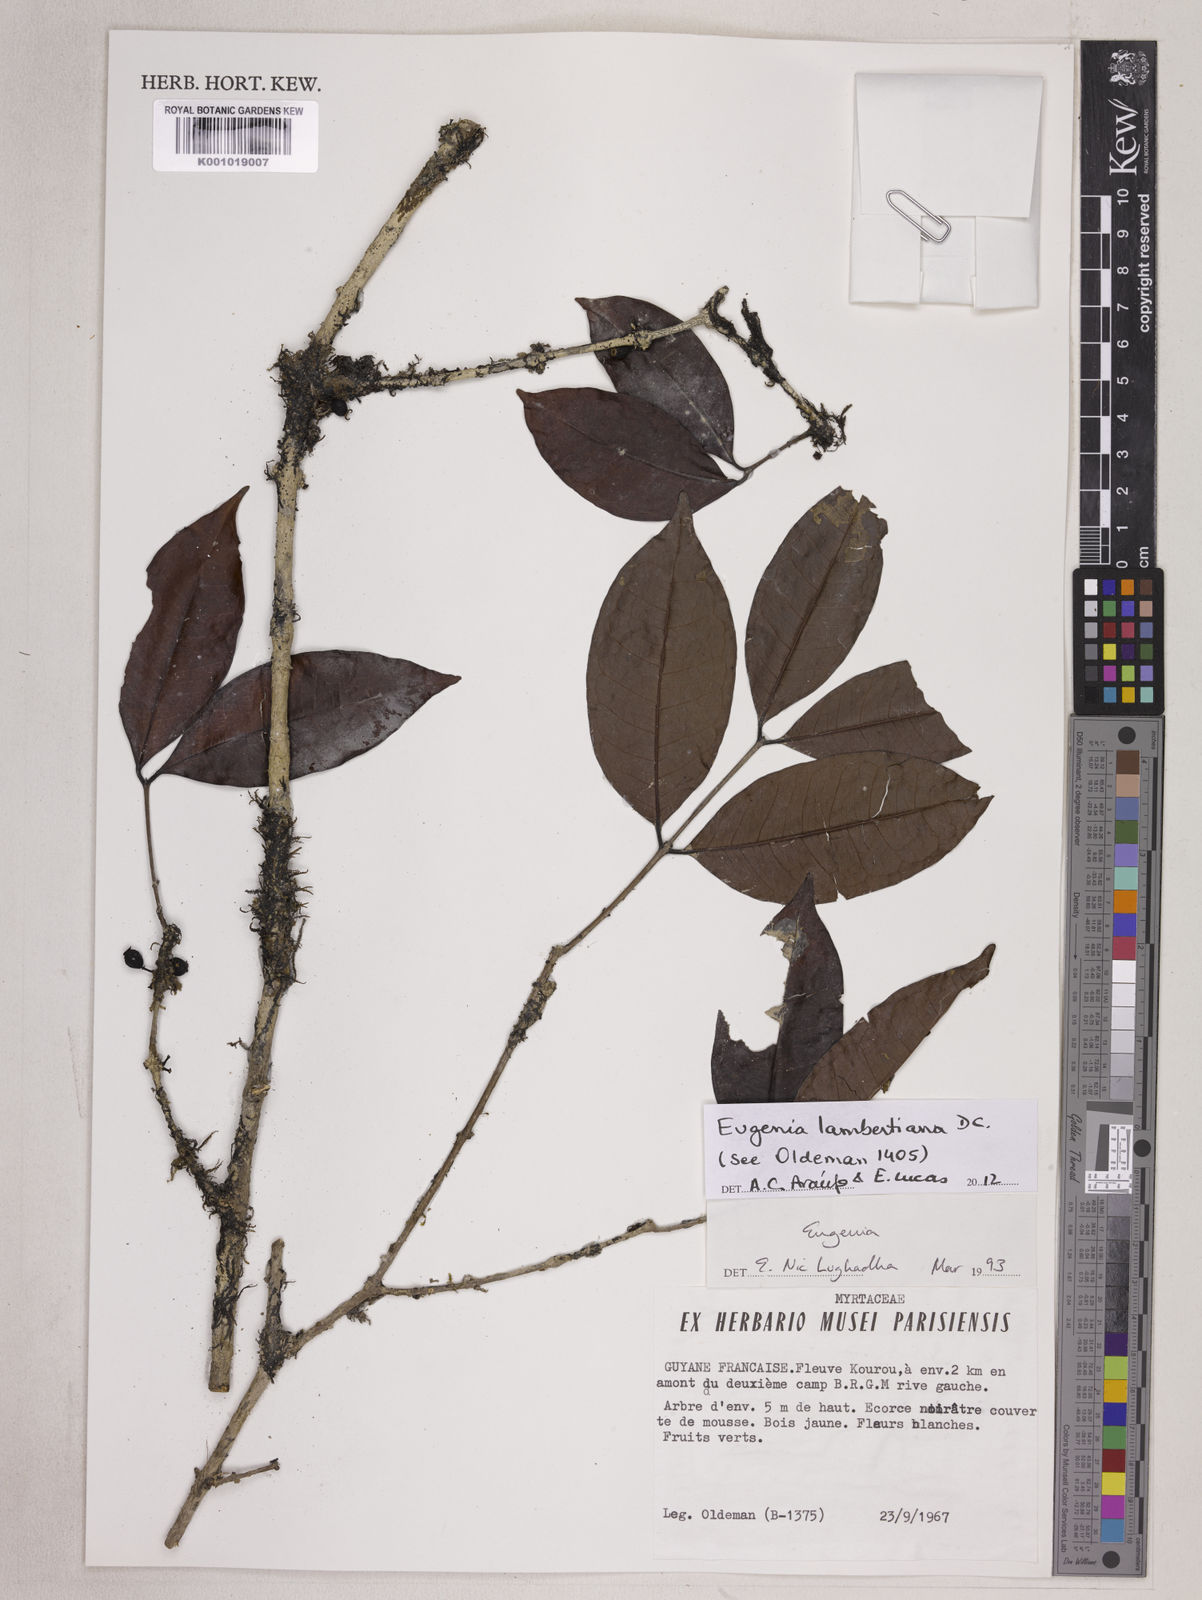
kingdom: Plantae
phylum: Tracheophyta
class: Magnoliopsida
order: Myrtales
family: Myrtaceae
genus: Eugenia
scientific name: Eugenia lambertiana
